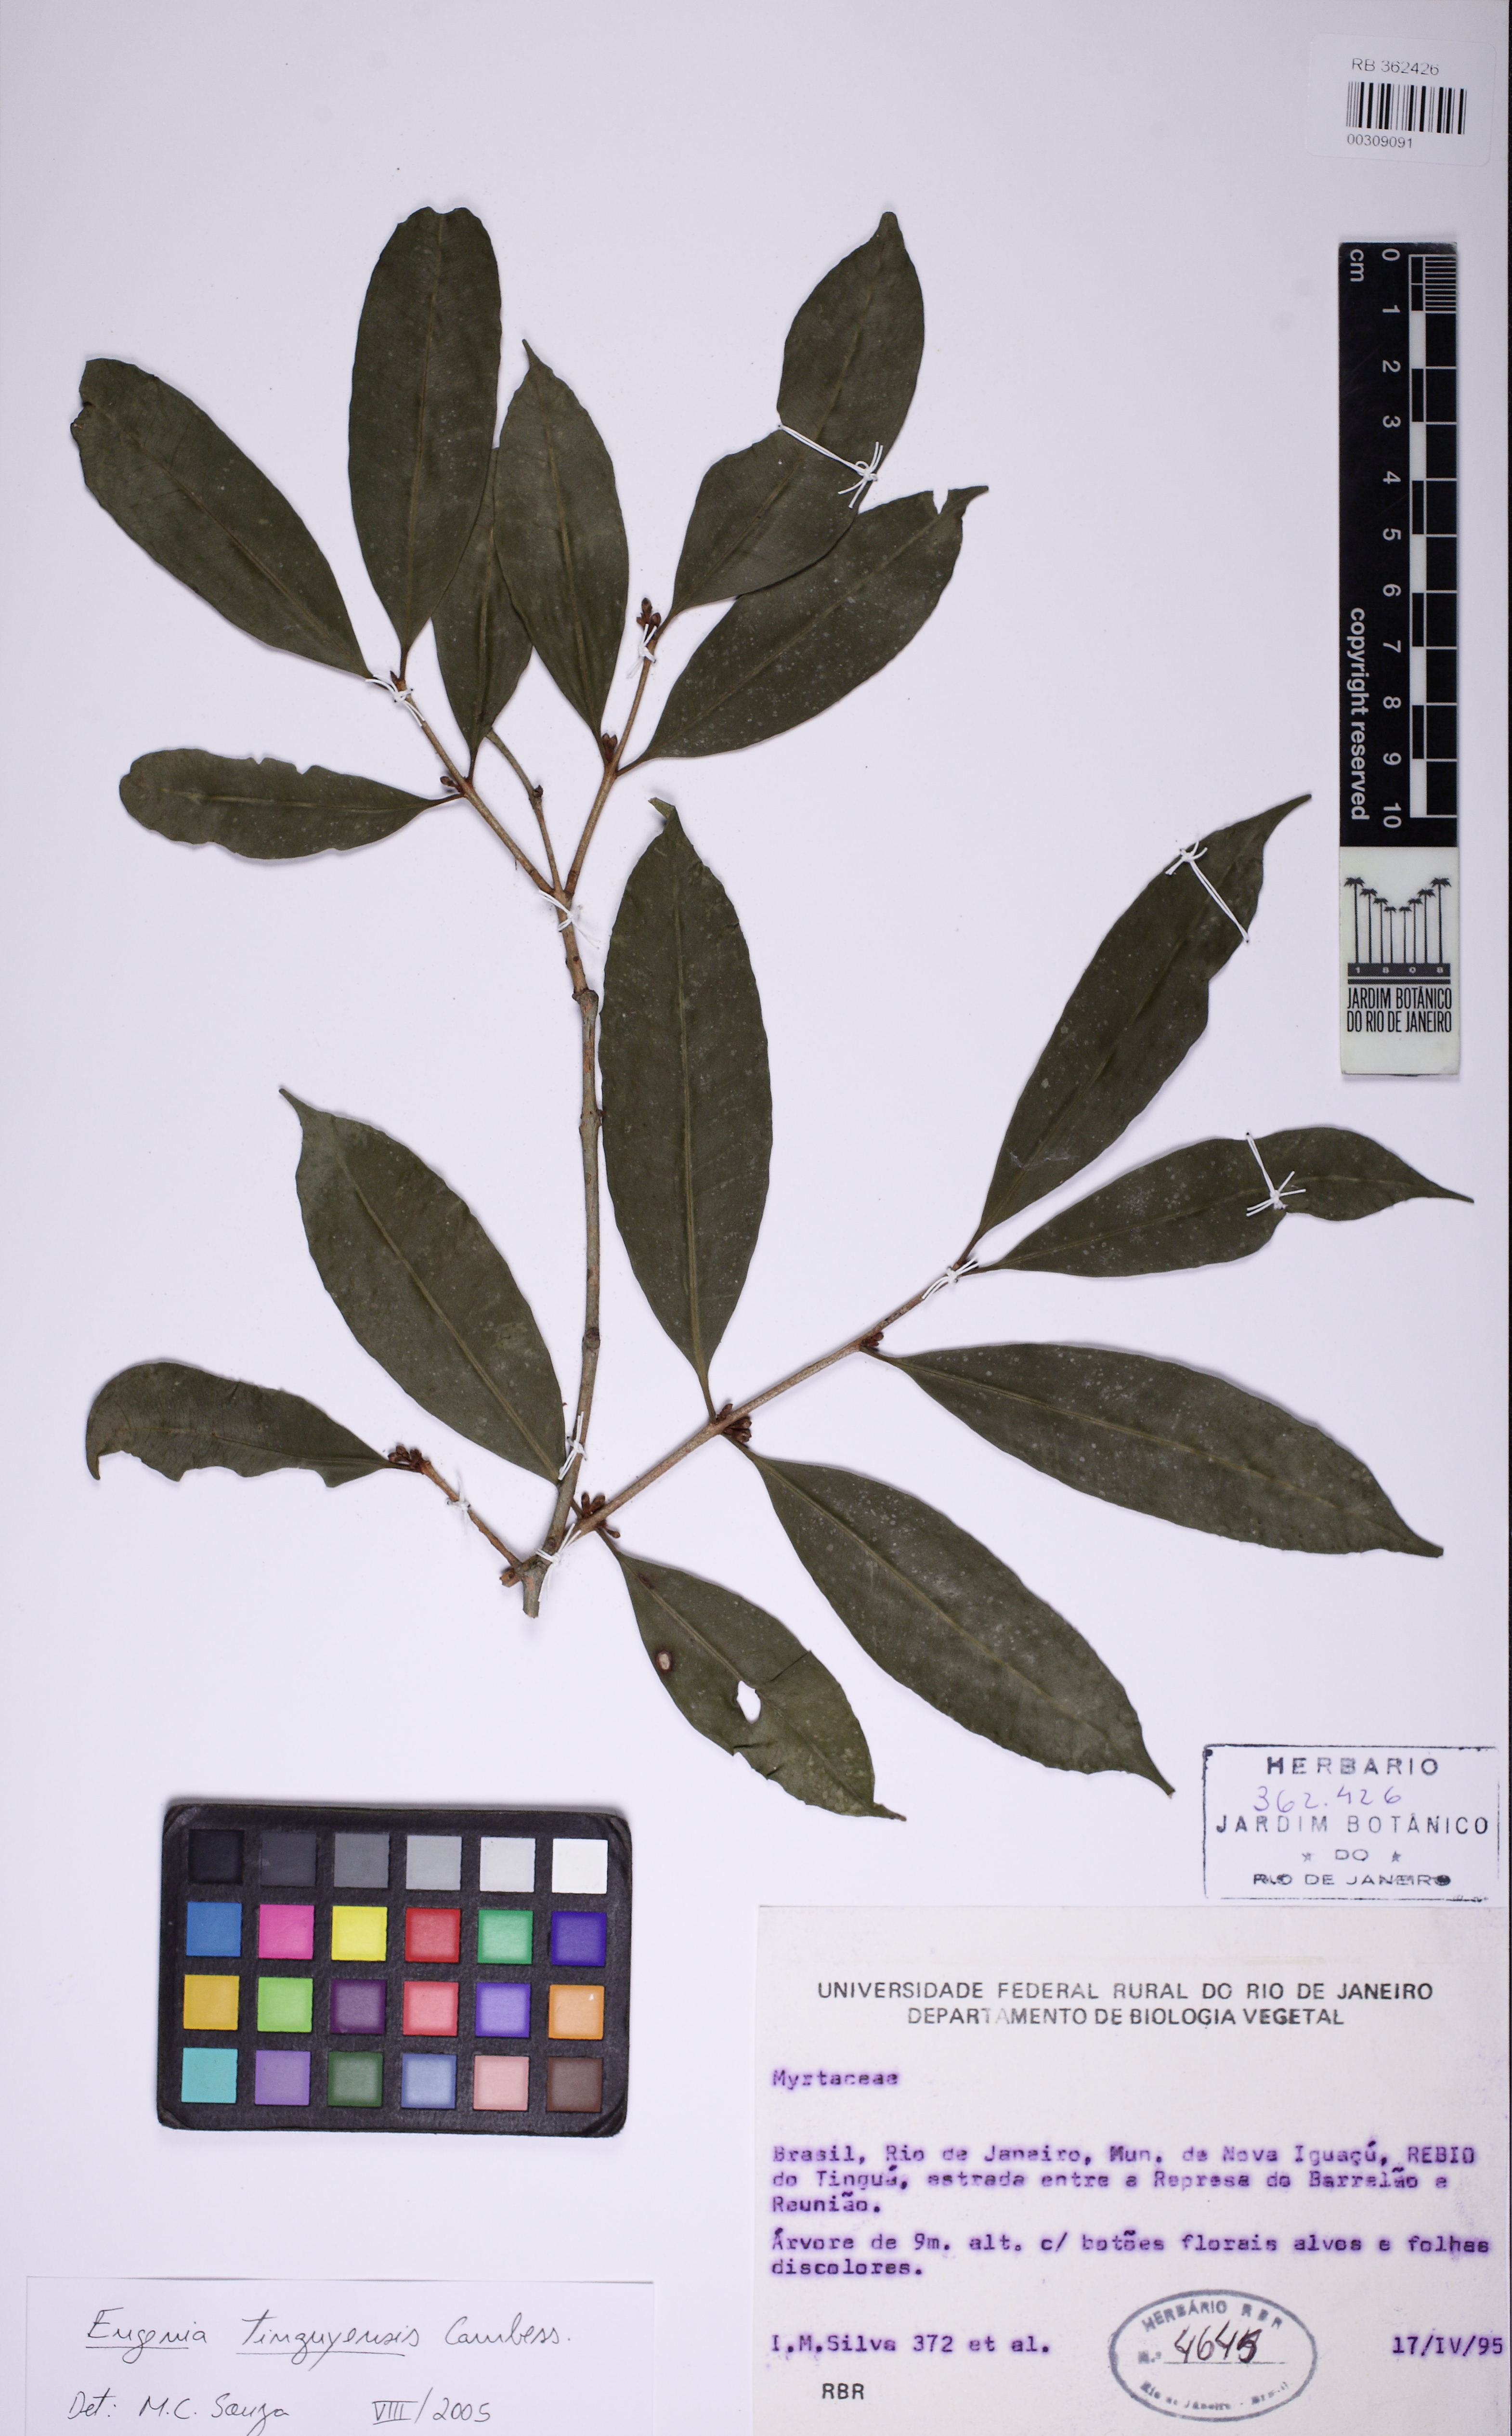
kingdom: Plantae
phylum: Tracheophyta
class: Magnoliopsida
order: Myrtales
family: Myrtaceae
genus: Eugenia
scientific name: Eugenia pisiformis
